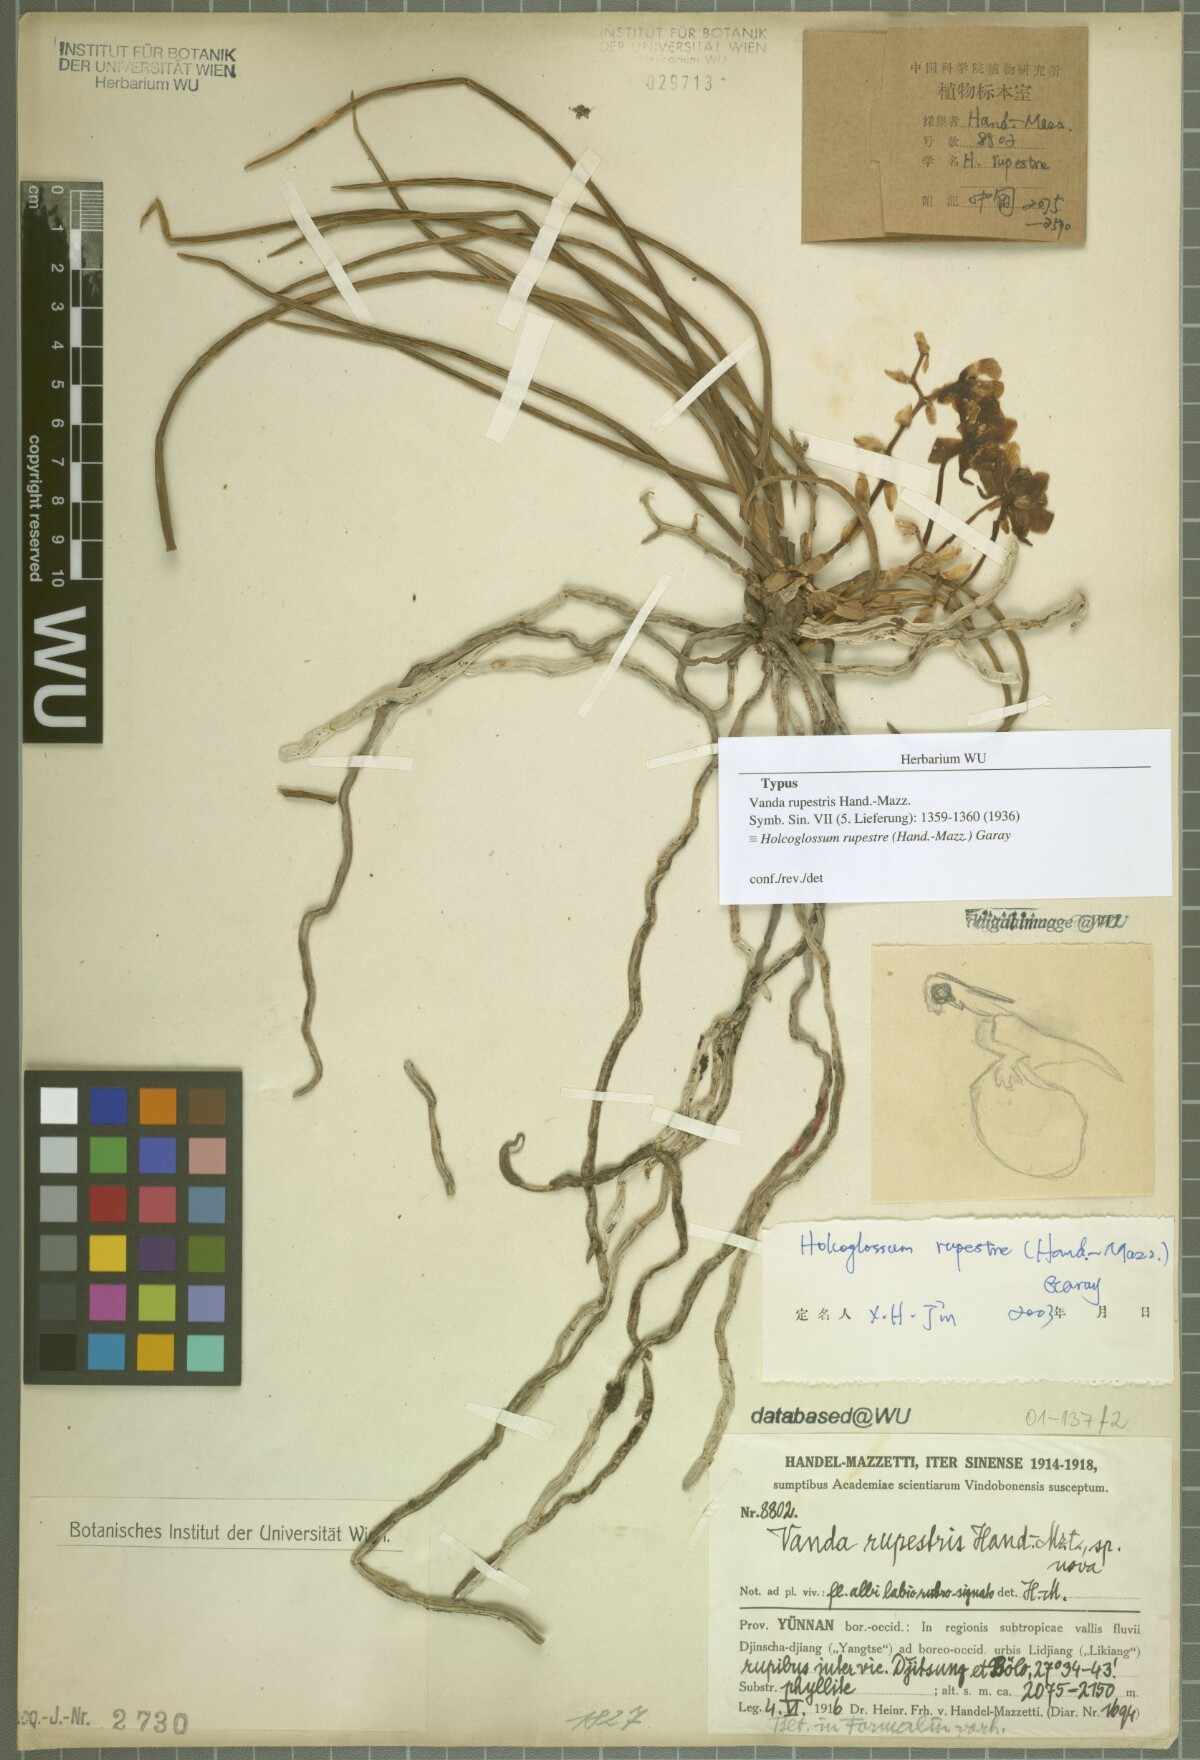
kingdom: Plantae
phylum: Tracheophyta
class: Liliopsida
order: Asparagales
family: Orchidaceae
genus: Holcoglossum
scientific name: Holcoglossum rupestre
